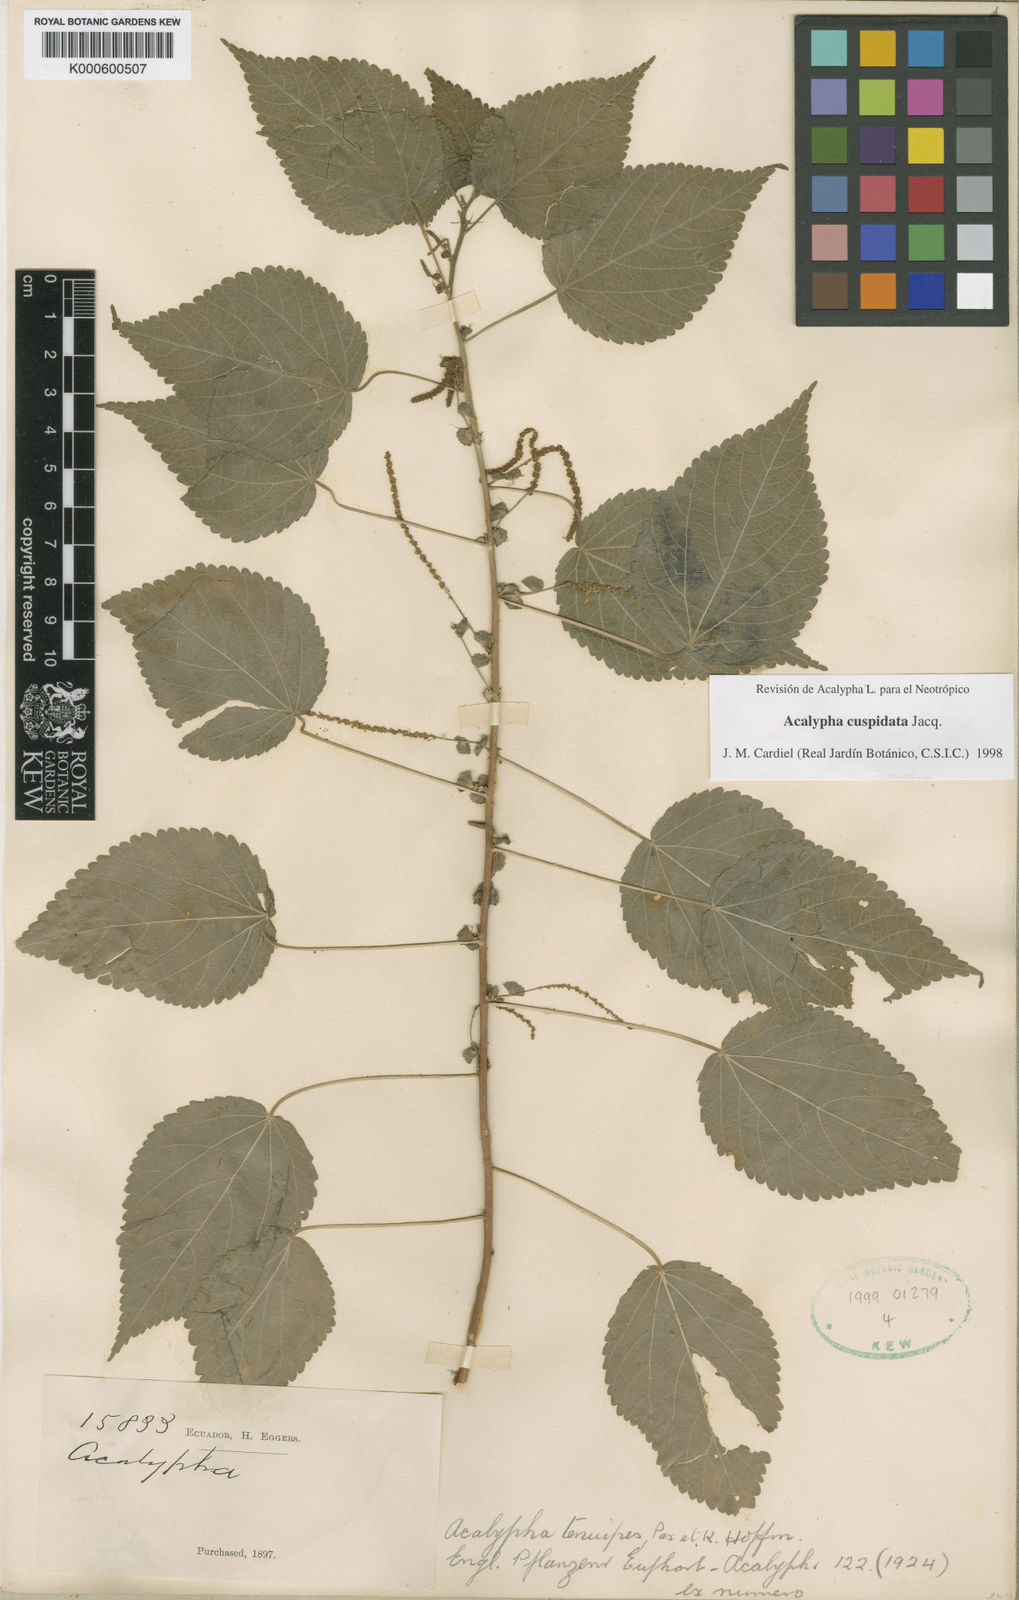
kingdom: Plantae
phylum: Tracheophyta
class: Magnoliopsida
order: Malpighiales
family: Euphorbiaceae
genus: Acalypha
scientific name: Acalypha cuspidata
